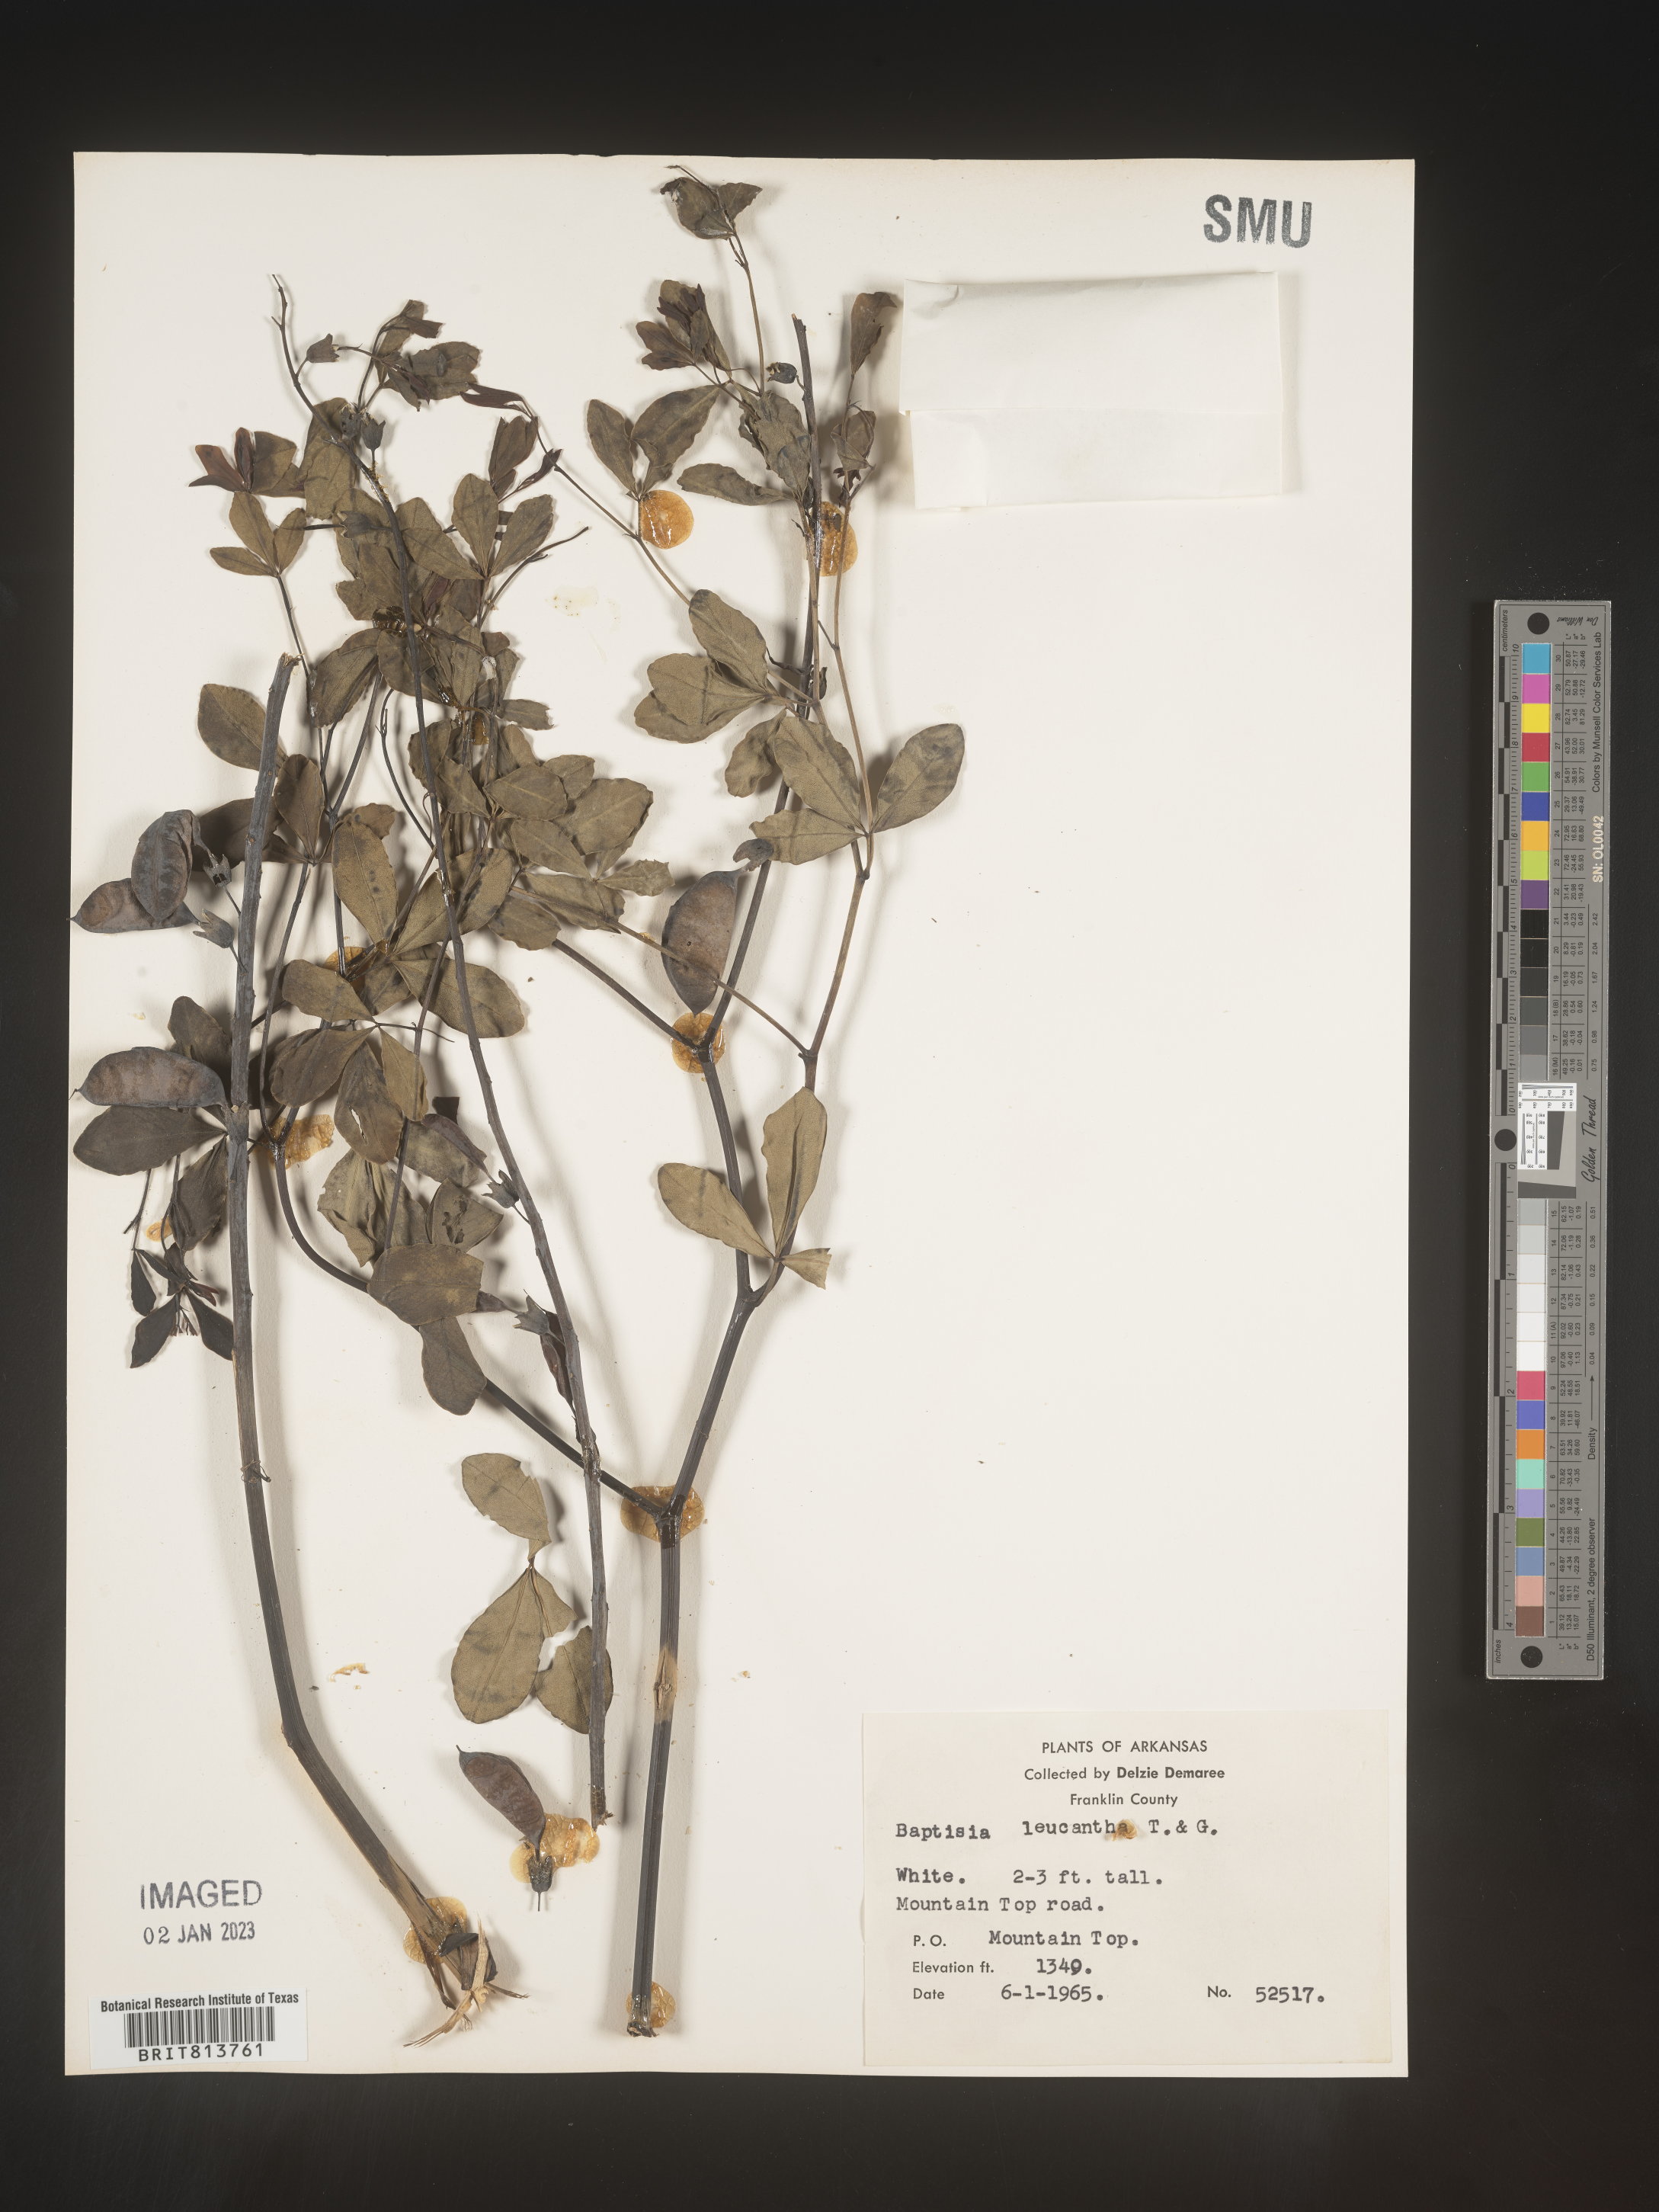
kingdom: Plantae
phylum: Tracheophyta
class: Magnoliopsida
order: Fabales
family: Fabaceae
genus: Baptisia
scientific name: Baptisia alba
